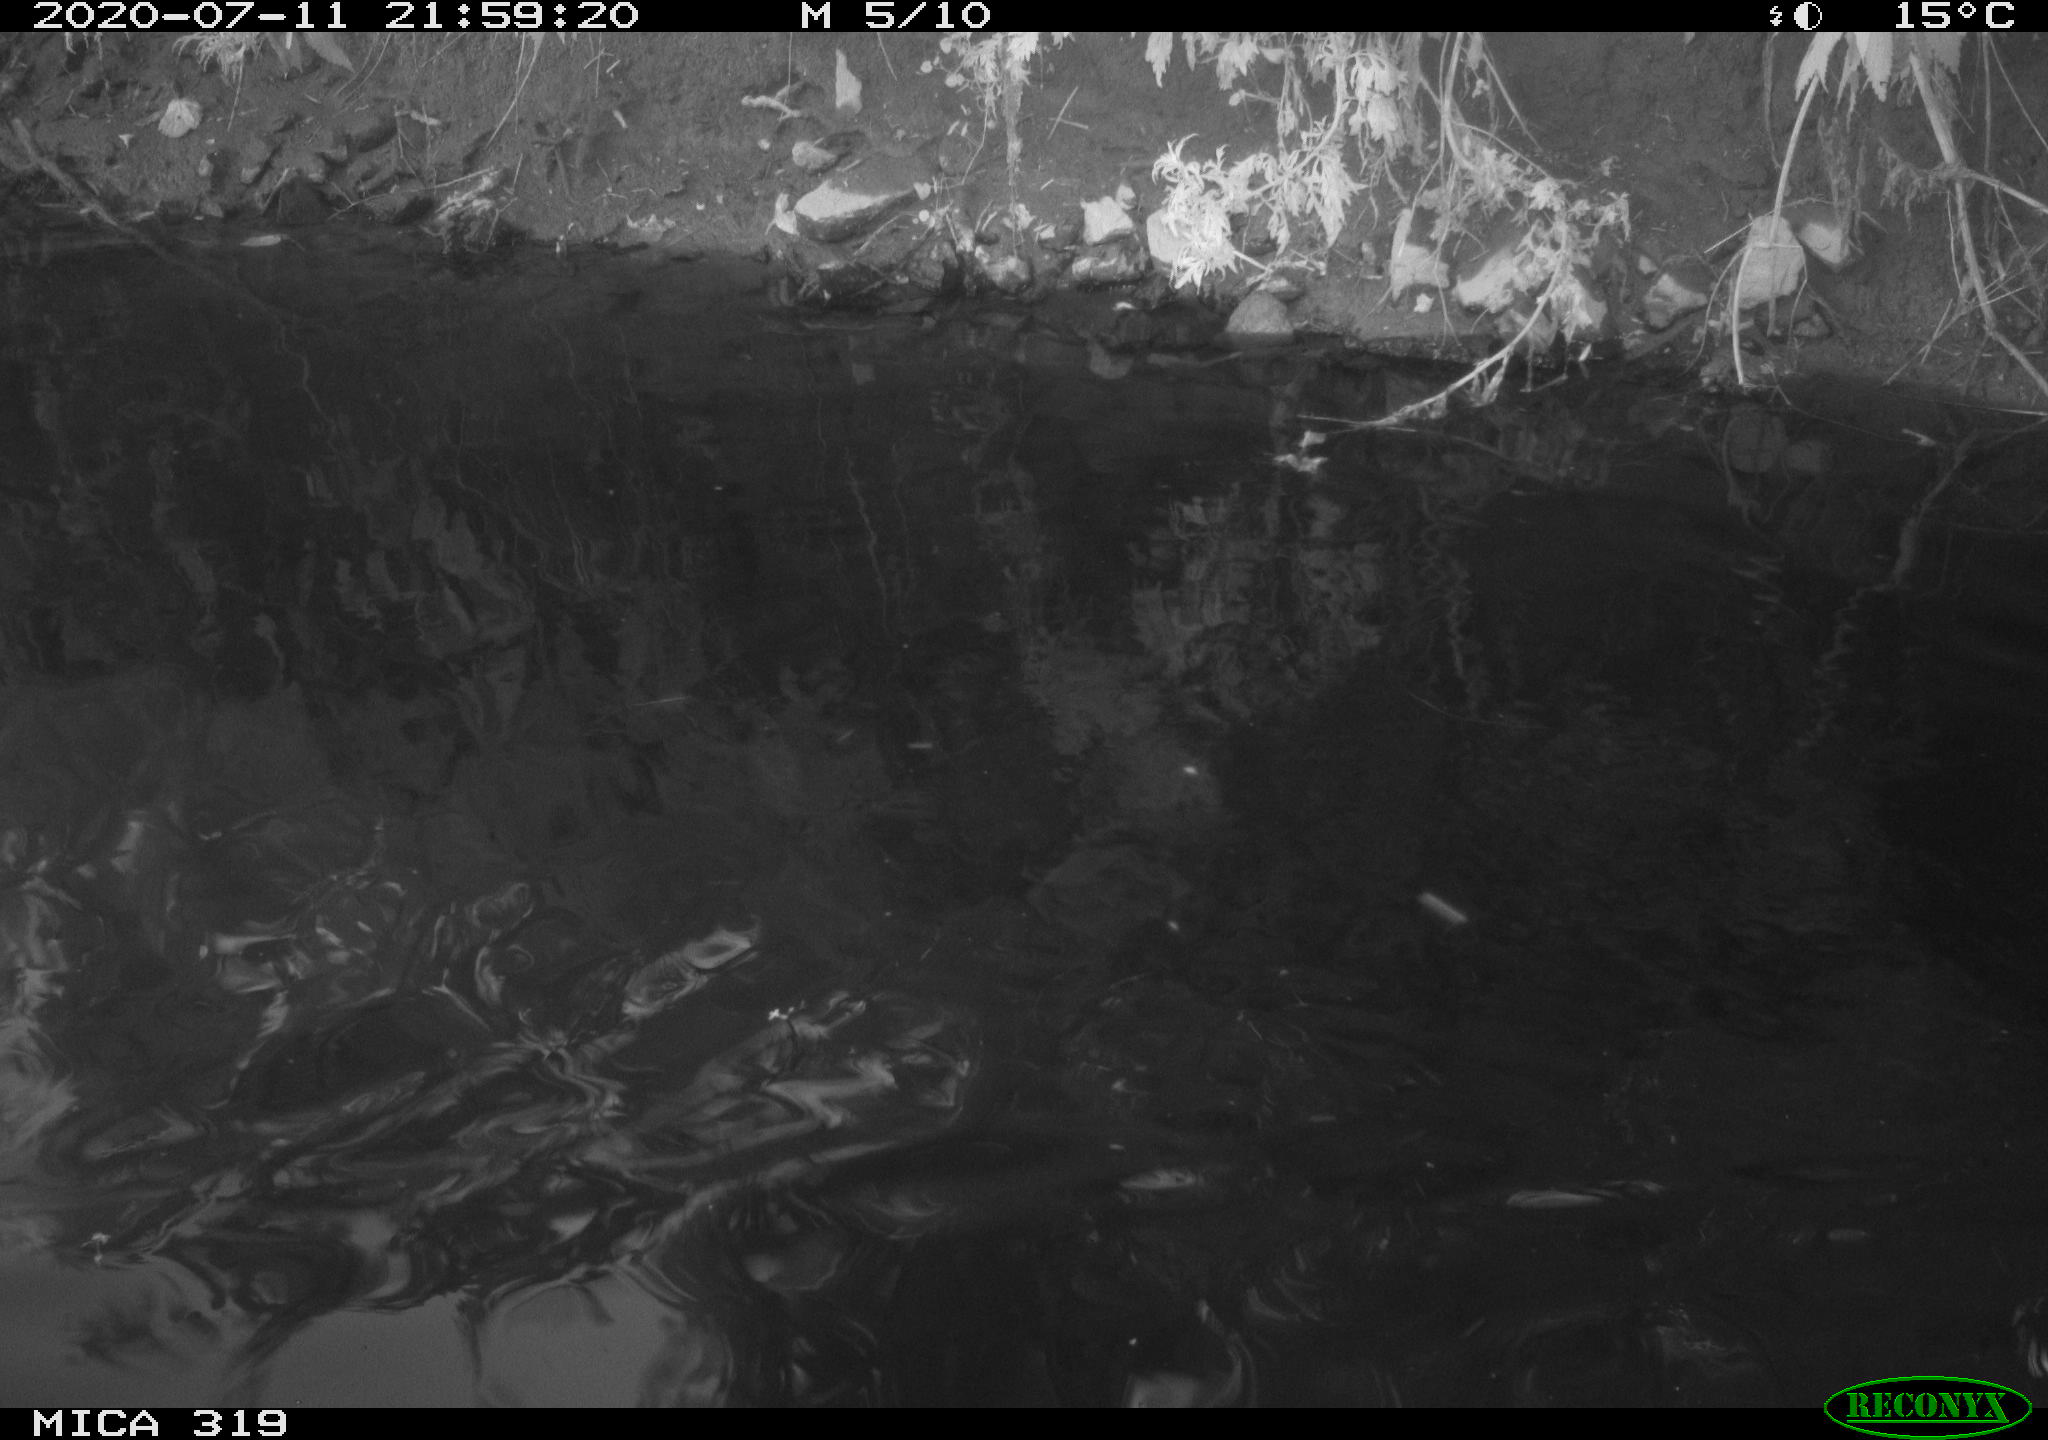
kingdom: Animalia
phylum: Chordata
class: Aves
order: Anseriformes
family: Anatidae
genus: Anas
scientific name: Anas platyrhynchos
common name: Mallard
